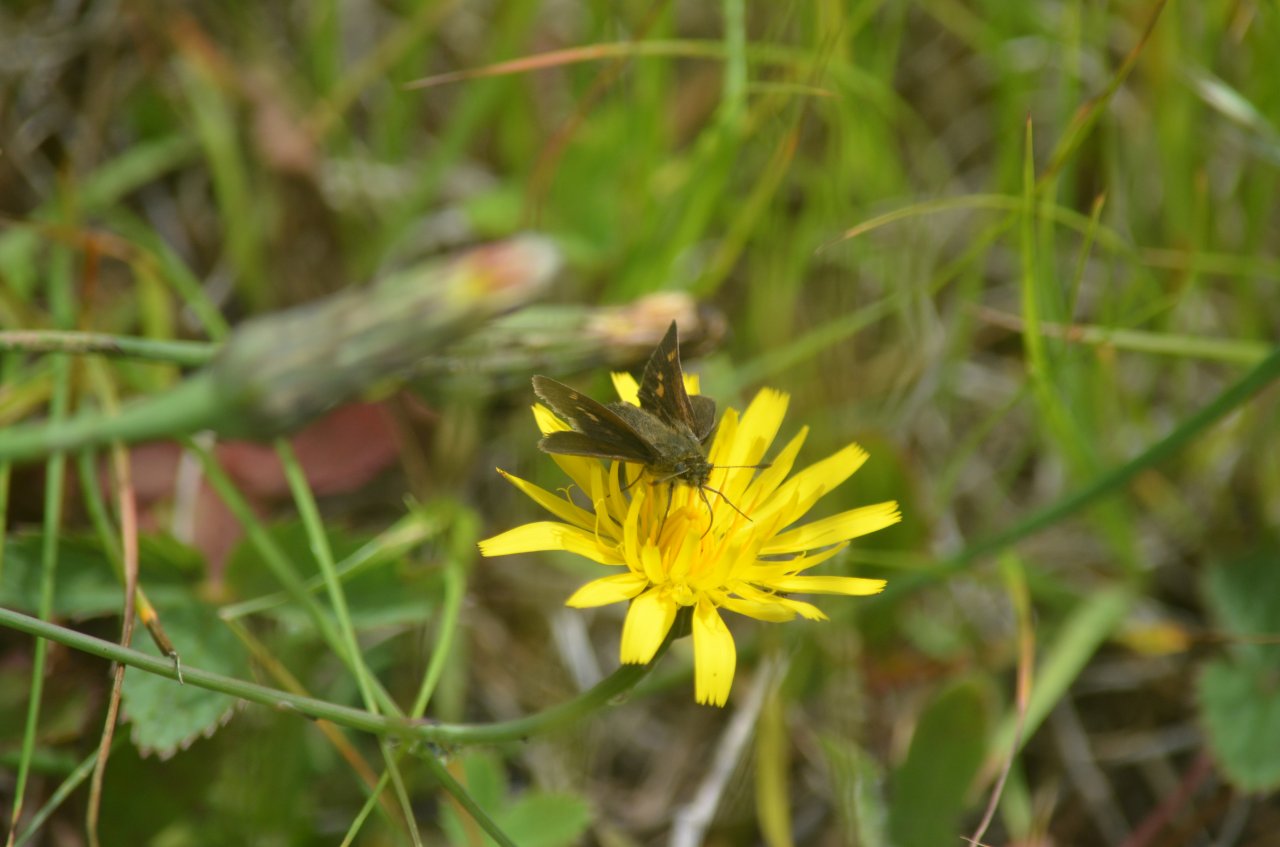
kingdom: Animalia
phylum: Arthropoda
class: Insecta
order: Lepidoptera
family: Hesperiidae
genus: Polites
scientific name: Polites themistocles
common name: Tawny-edged Skipper
